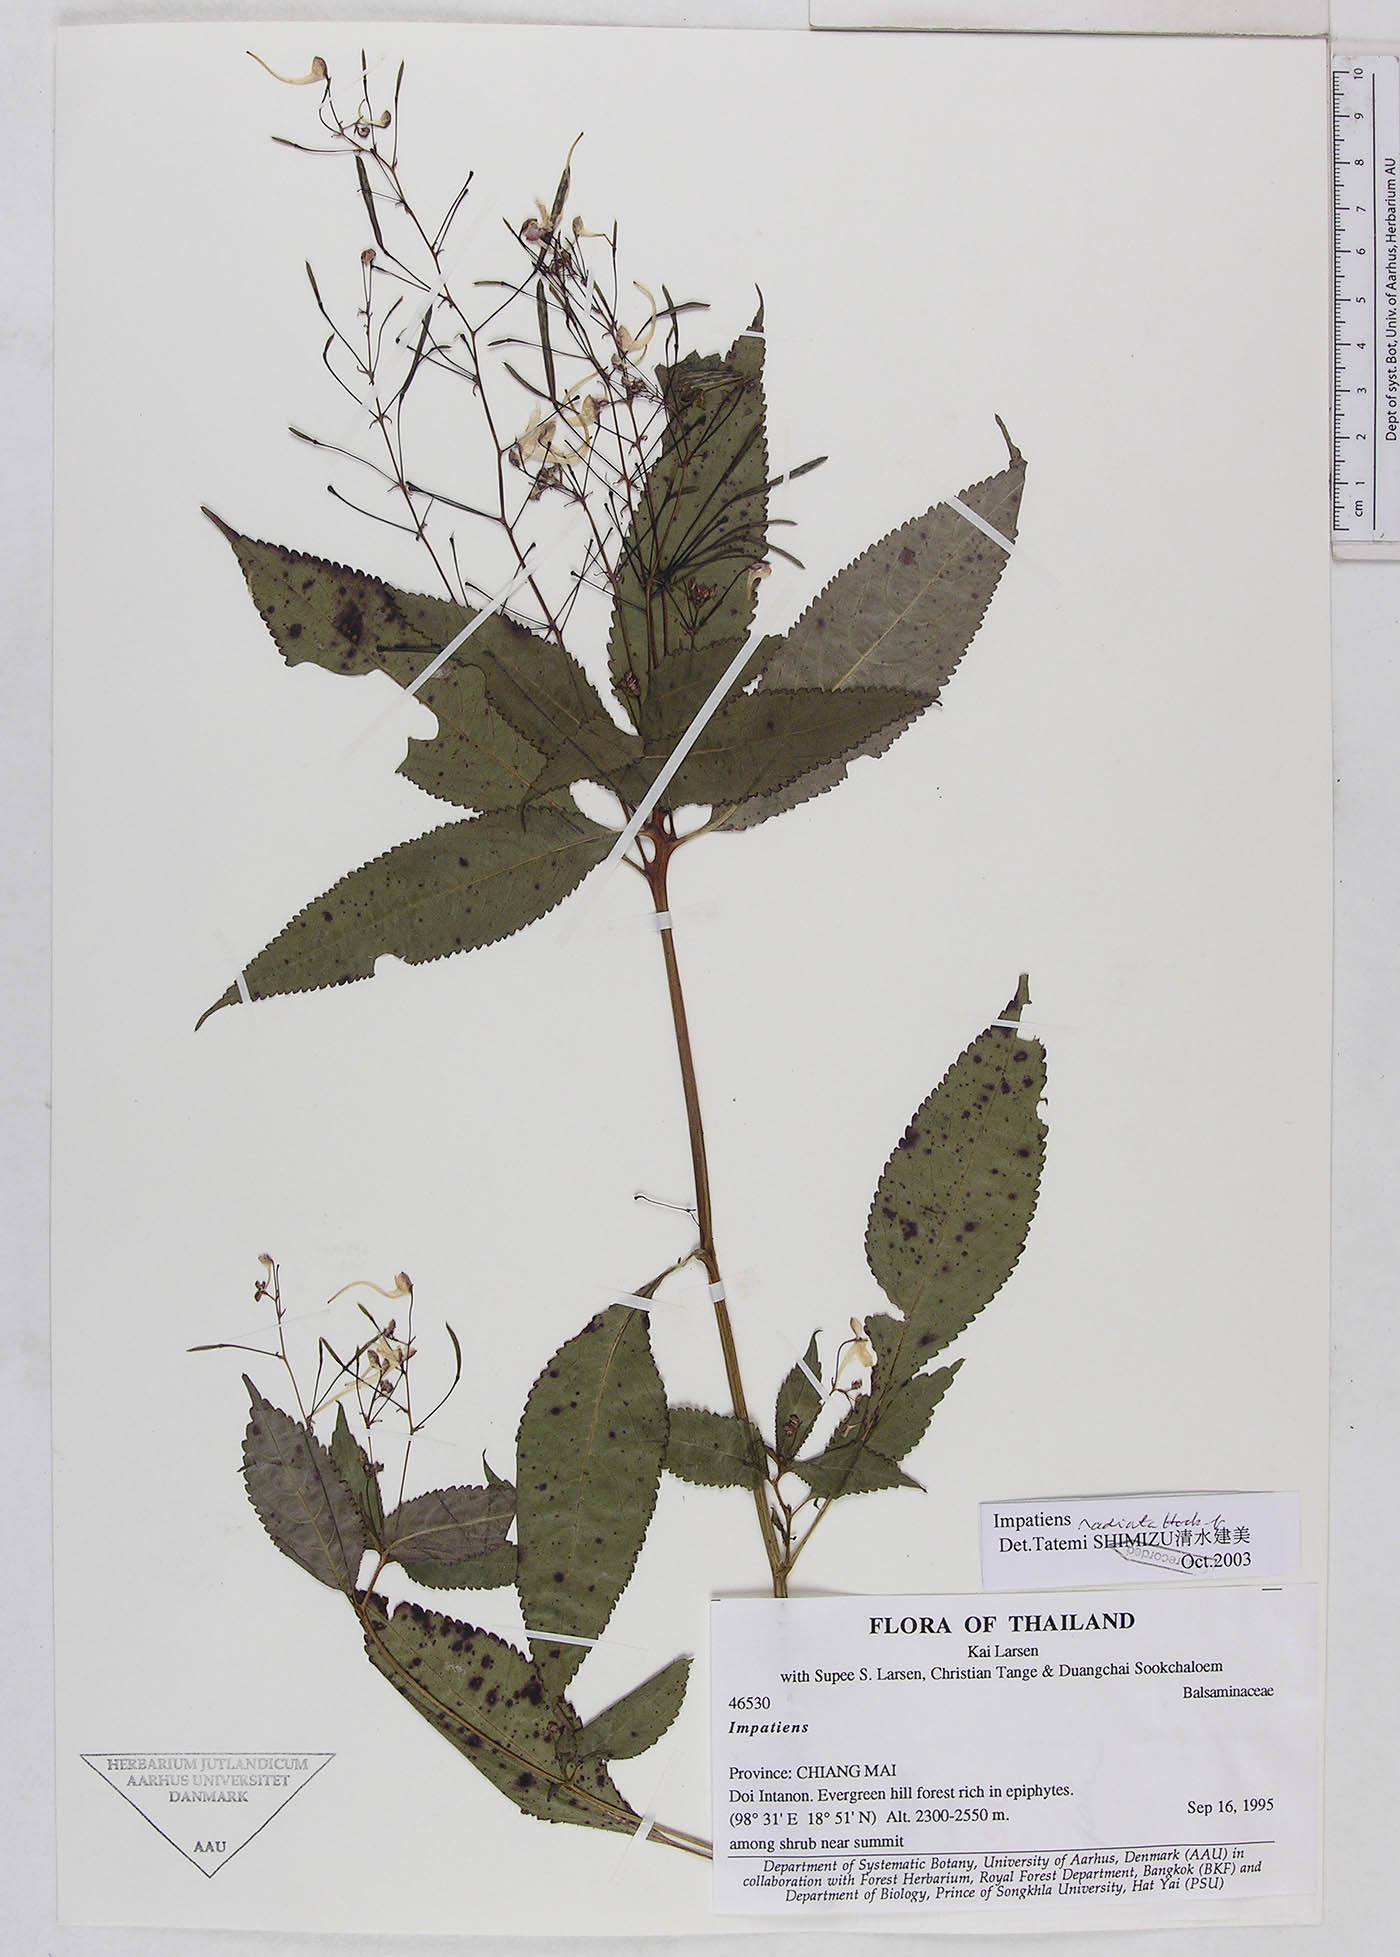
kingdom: Plantae
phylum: Tracheophyta
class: Magnoliopsida
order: Ericales
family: Balsaminaceae
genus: Impatiens
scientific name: Impatiens radiata
